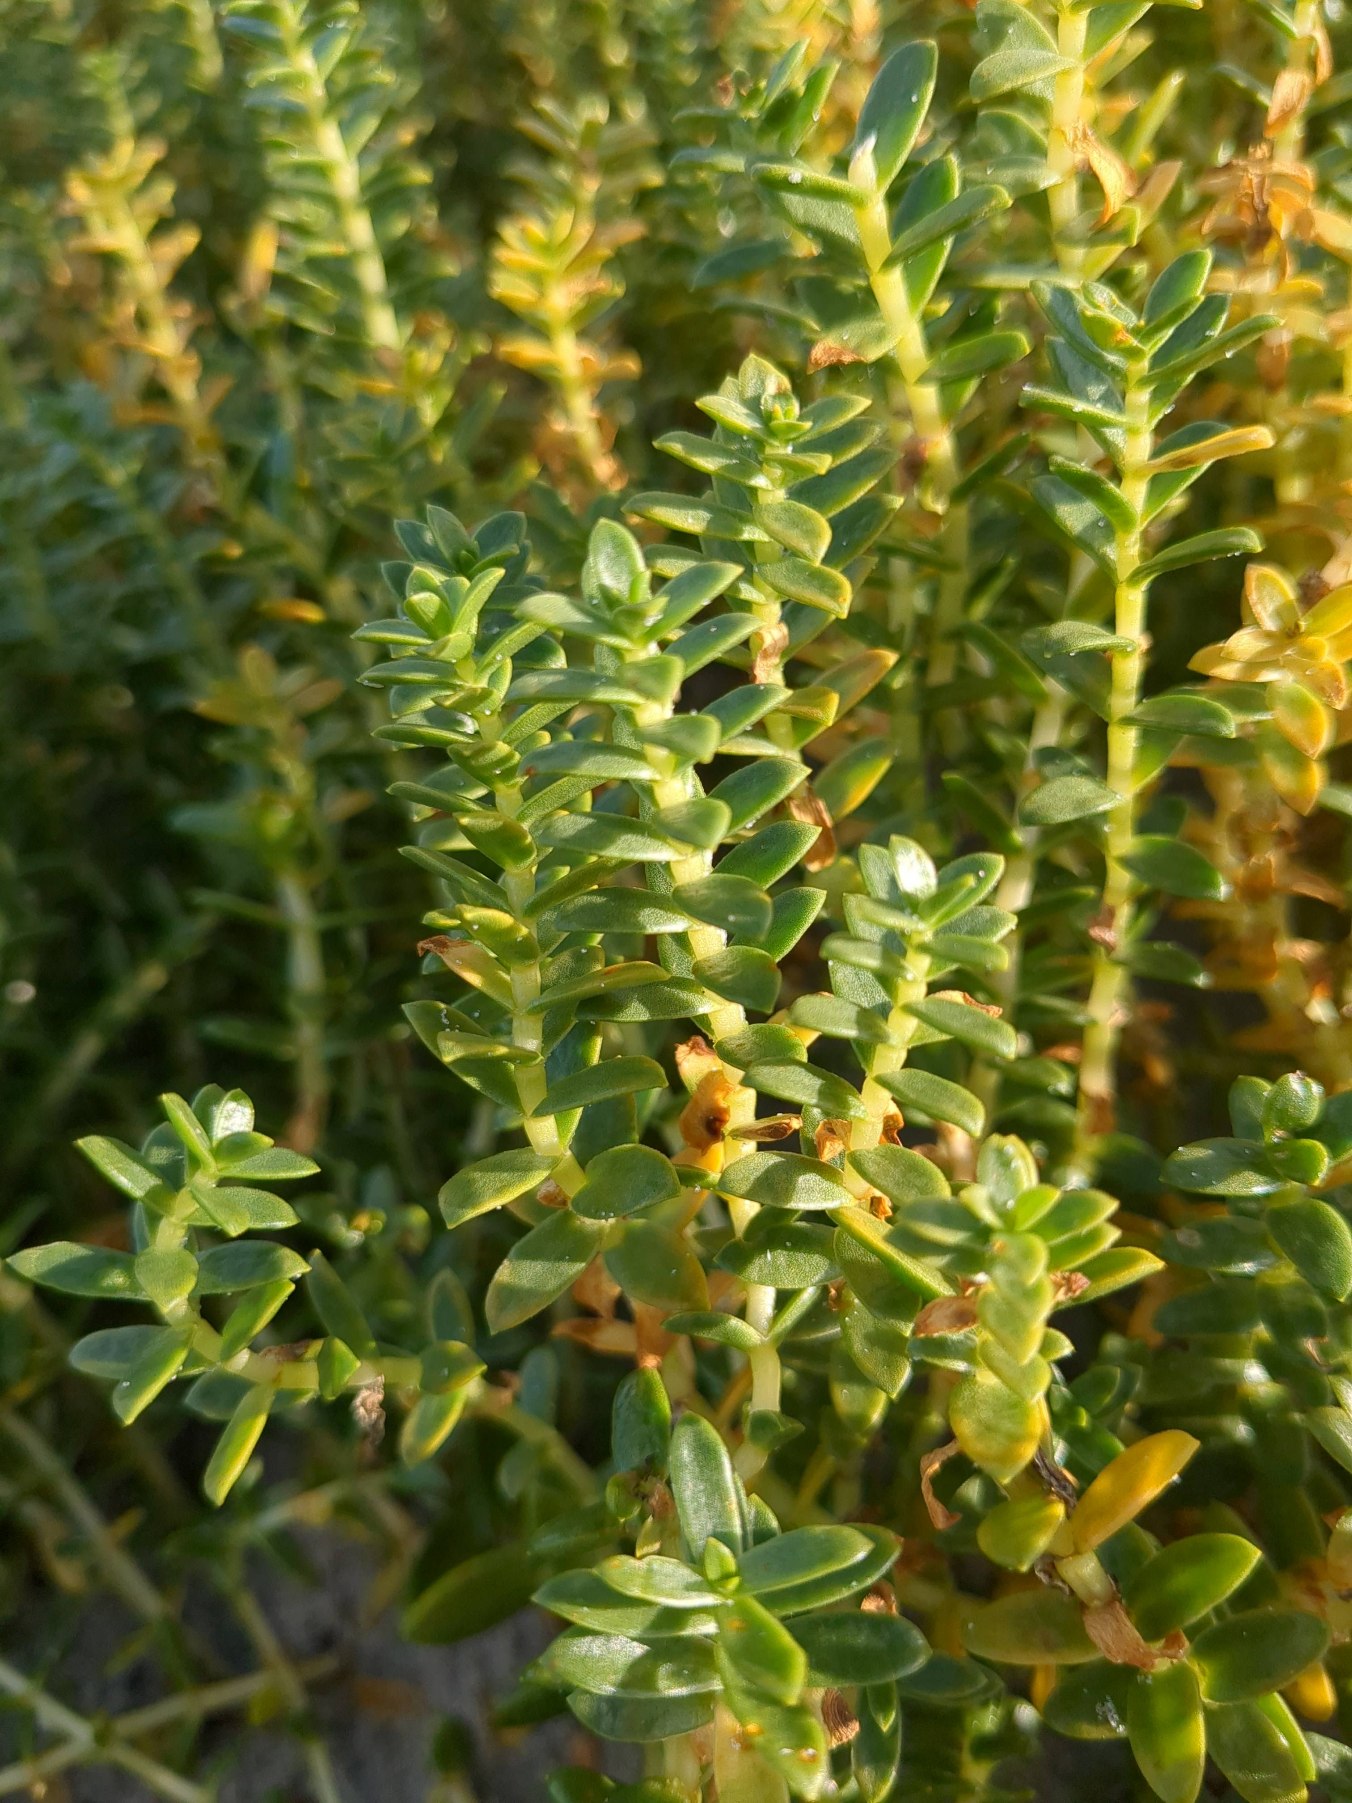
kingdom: Plantae
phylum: Tracheophyta
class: Magnoliopsida
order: Caryophyllales
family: Caryophyllaceae
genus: Honckenya
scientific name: Honckenya peploides
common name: Strandarve
